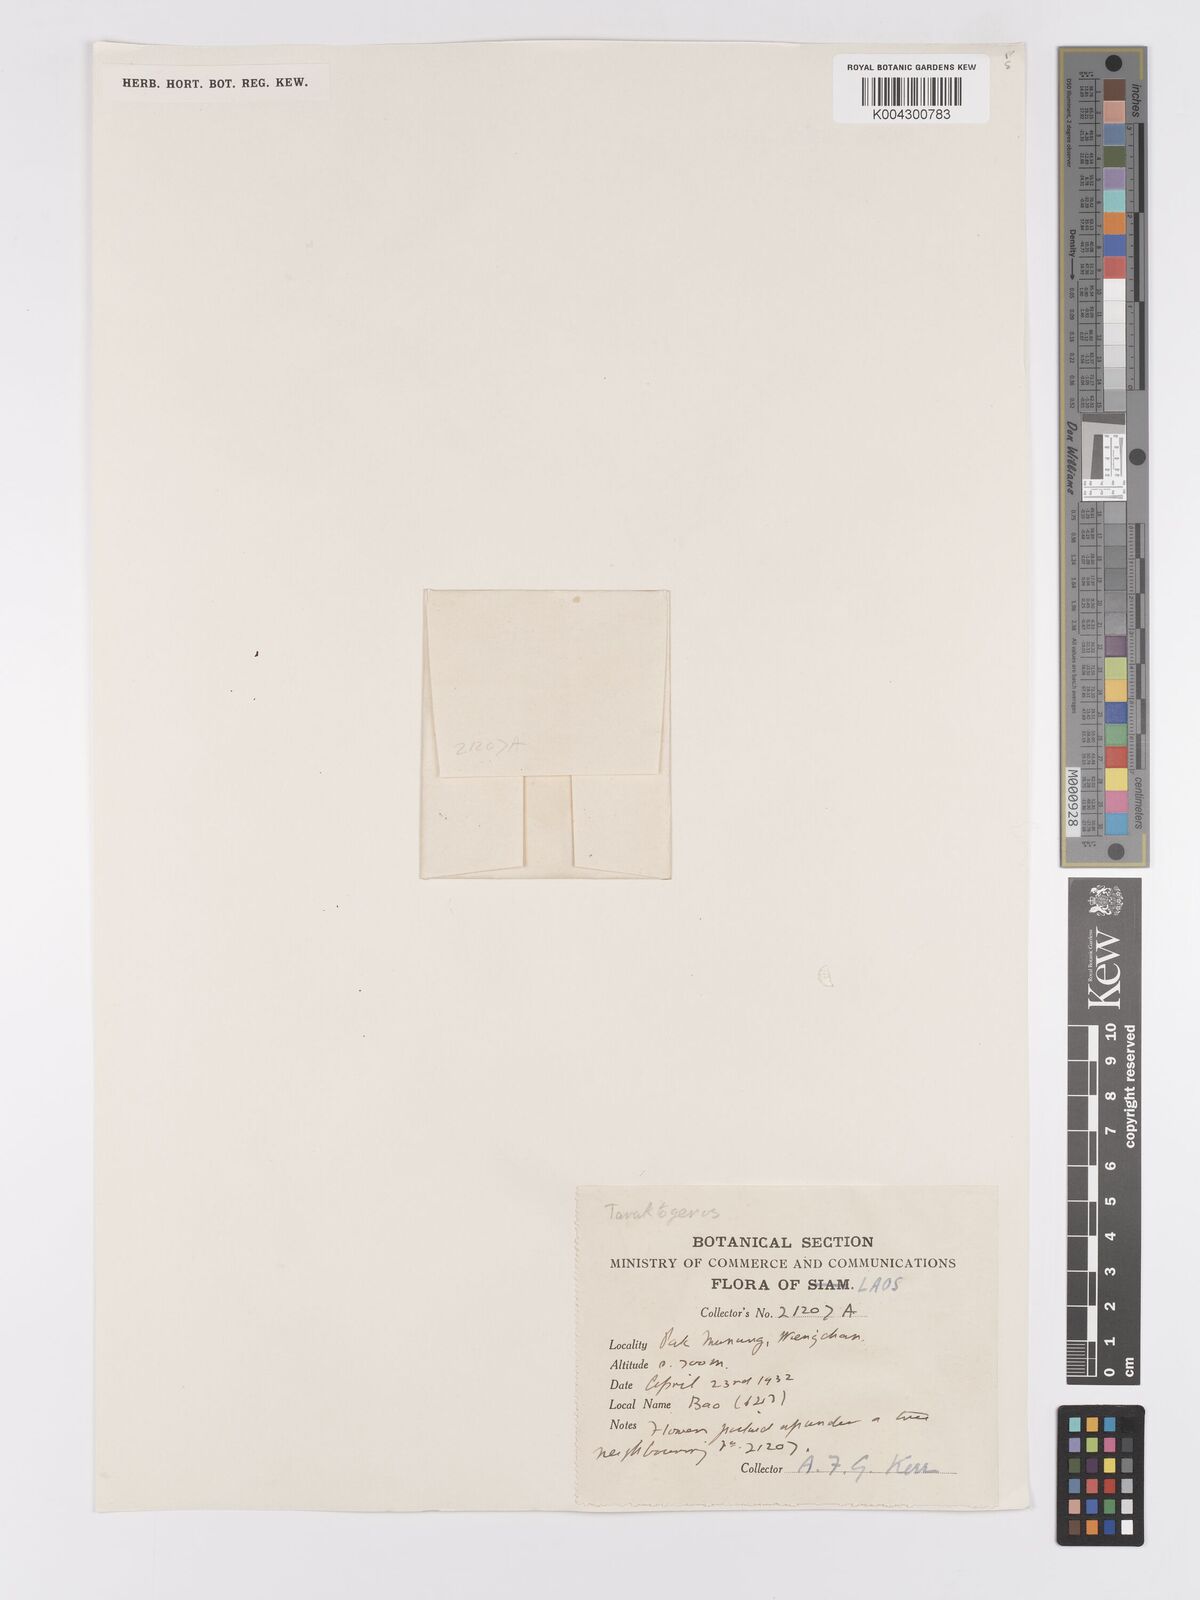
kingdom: Plantae
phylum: Tracheophyta
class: Magnoliopsida
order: Malpighiales
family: Achariaceae
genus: Hydnocarpus
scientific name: Hydnocarpus
